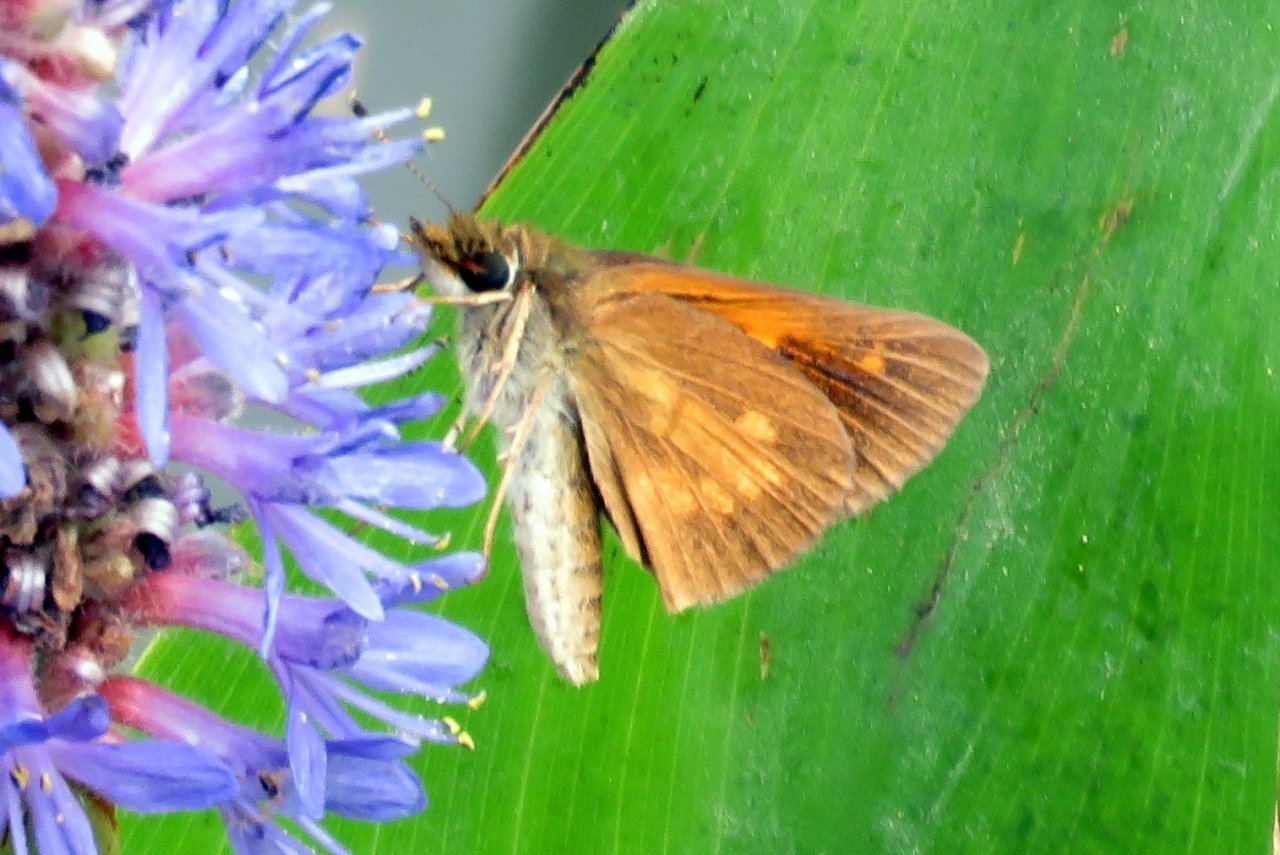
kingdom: Animalia
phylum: Arthropoda
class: Insecta
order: Lepidoptera
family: Hesperiidae
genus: Poanes
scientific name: Poanes viator
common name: Broad-winged Skipper
